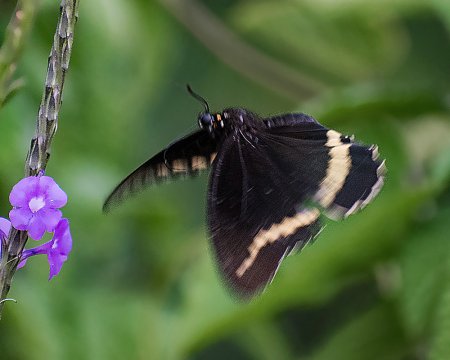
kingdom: Animalia
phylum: Arthropoda
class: Insecta
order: Lepidoptera
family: Papilionidae
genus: Battus
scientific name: Battus polydamas
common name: Polydamas Swallowtail
